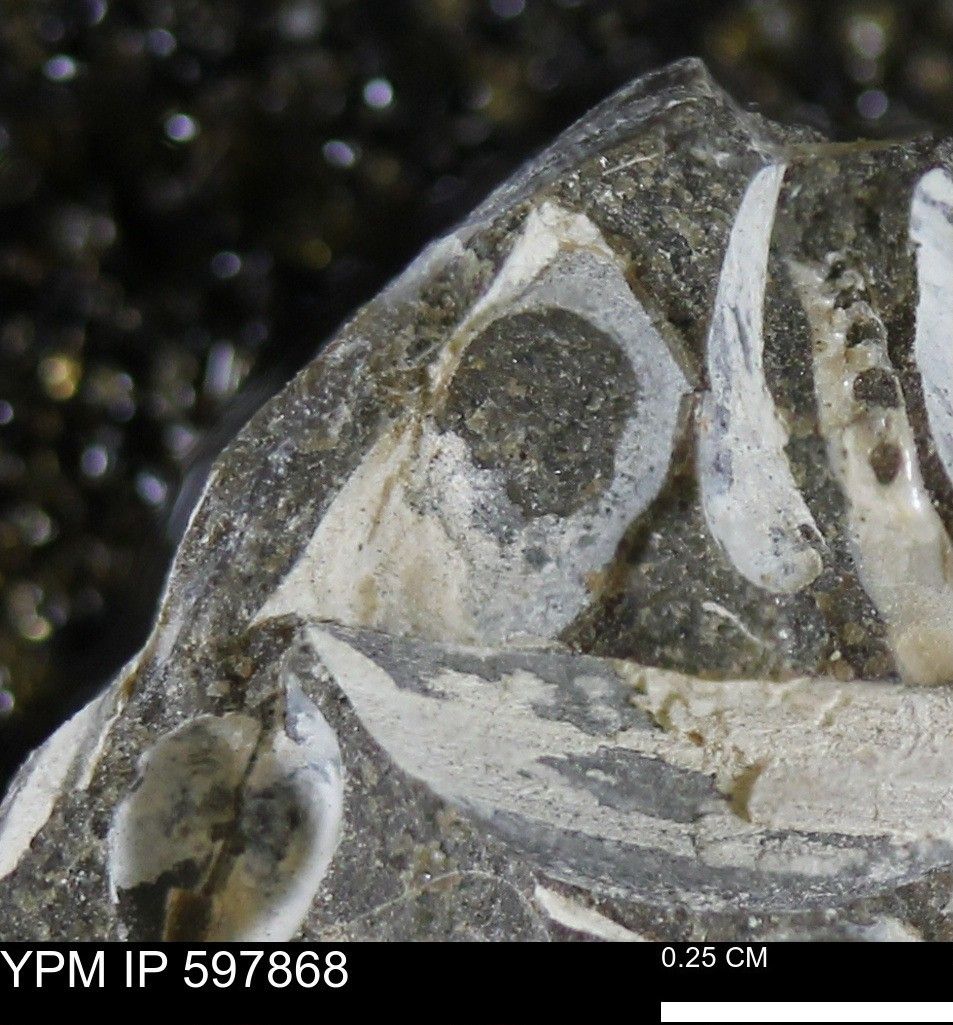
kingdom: Animalia
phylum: Mollusca
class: Bivalvia
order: Arcida
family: Limopsidae
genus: Limopsis
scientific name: Limopsis
